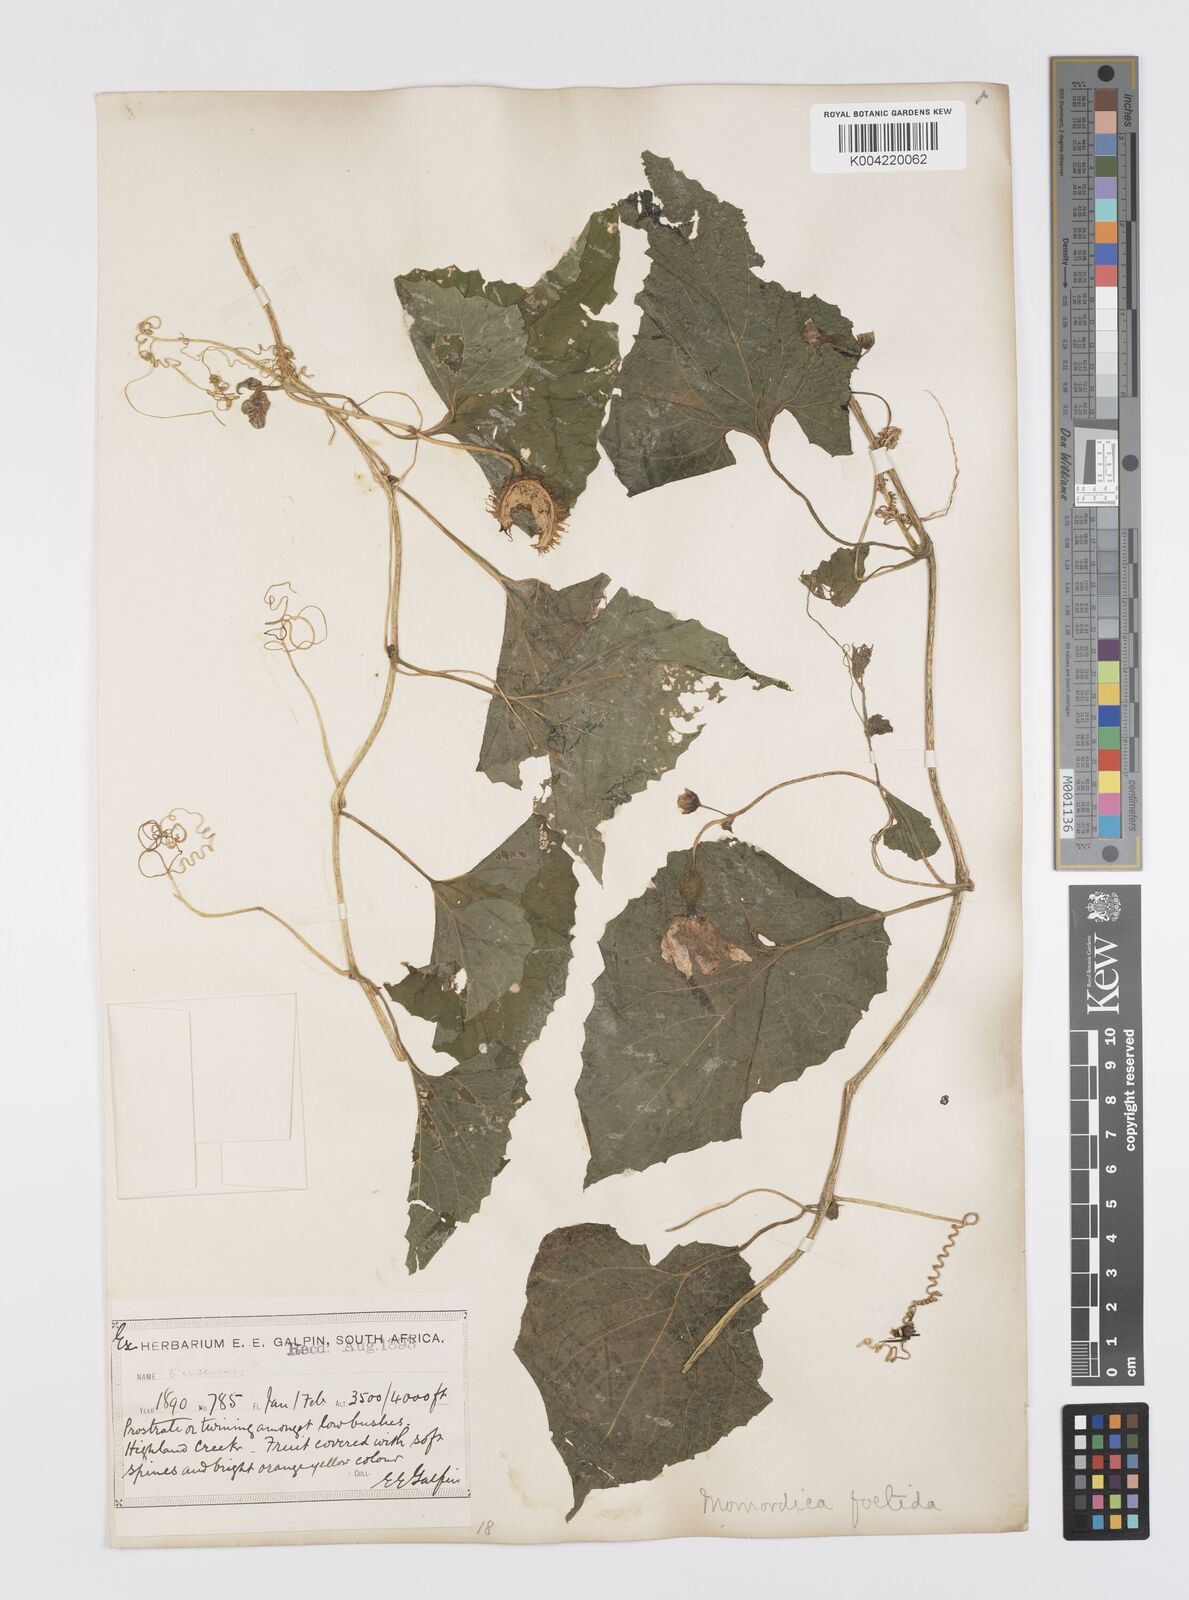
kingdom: Plantae
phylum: Tracheophyta
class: Magnoliopsida
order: Cucurbitales
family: Cucurbitaceae
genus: Momordica
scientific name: Momordica foetida
